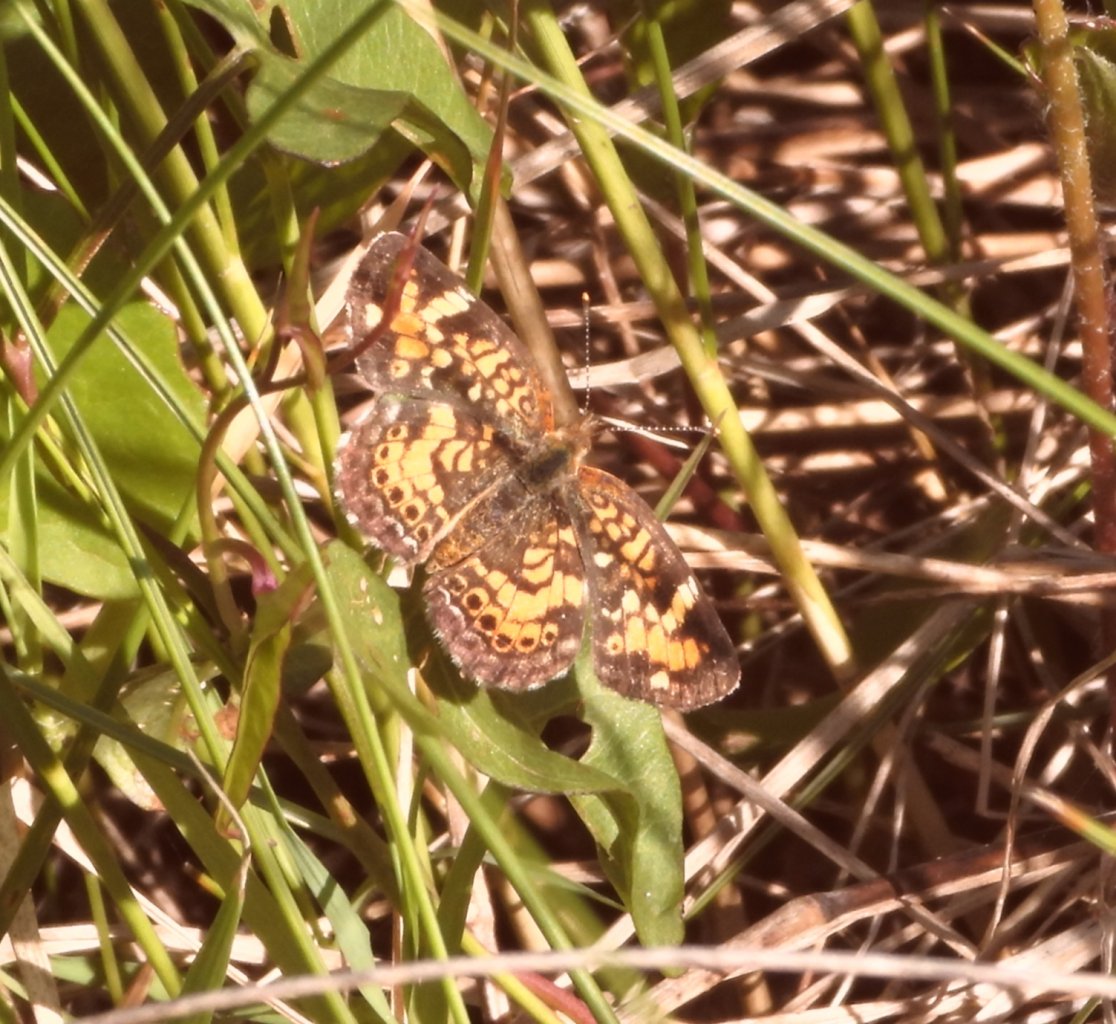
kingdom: Animalia
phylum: Arthropoda
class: Insecta
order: Lepidoptera
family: Nymphalidae
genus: Phyciodes
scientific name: Phyciodes phaon
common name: Phaon Crescent
